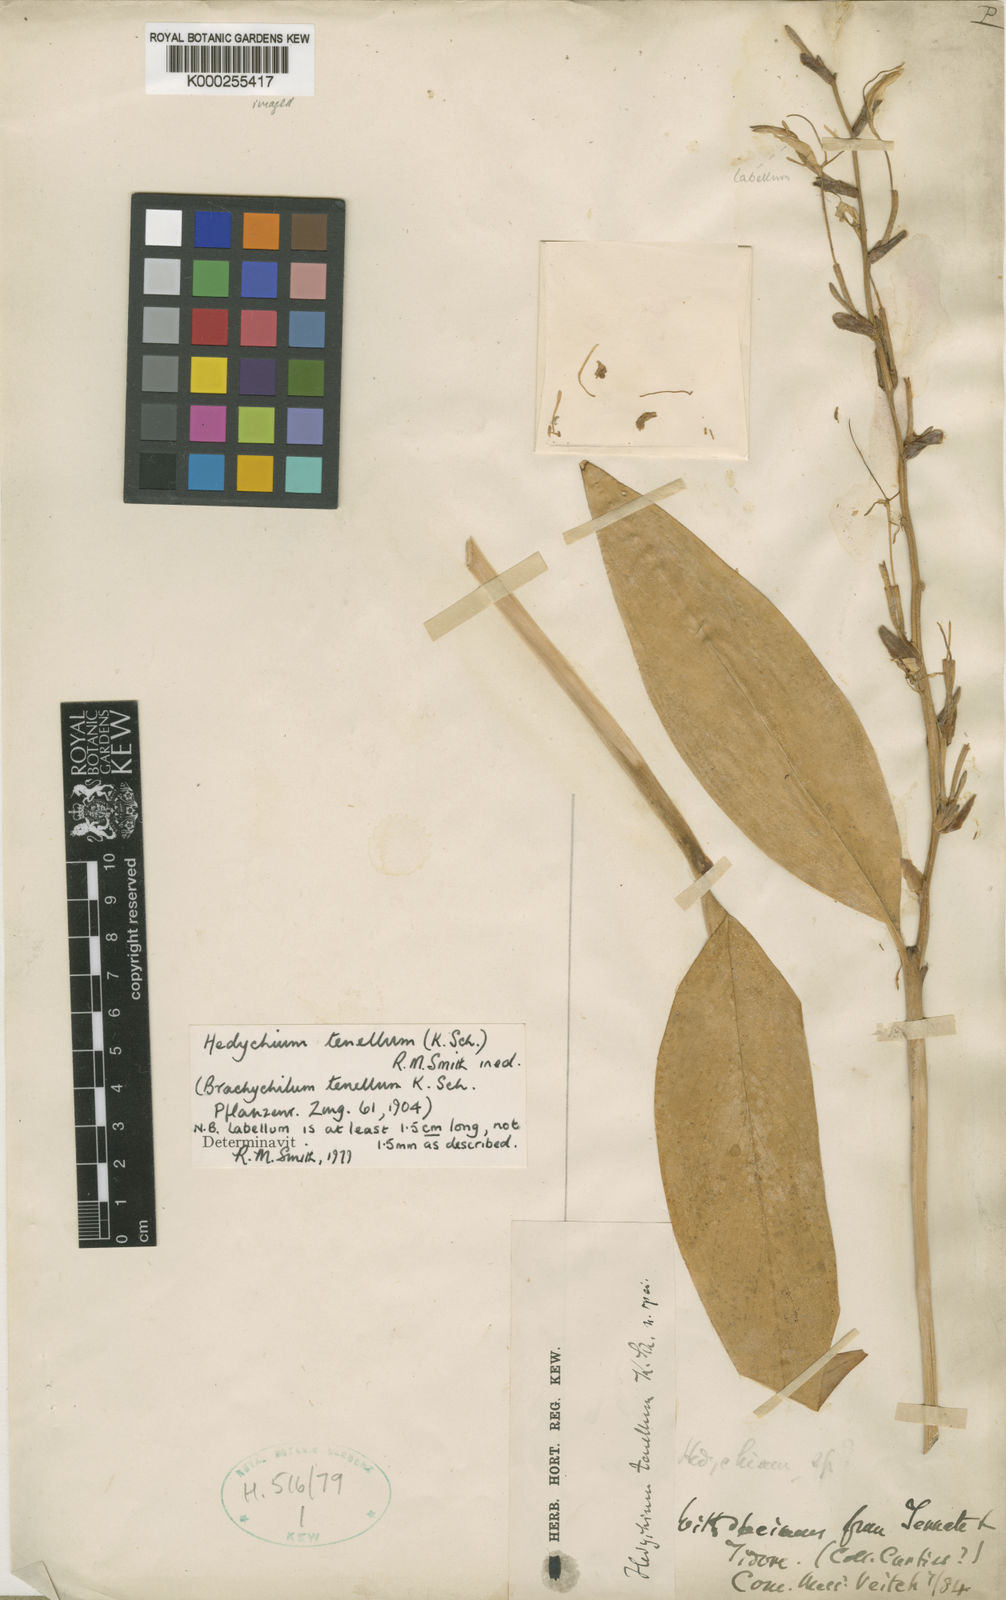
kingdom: Plantae
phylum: Tracheophyta
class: Liliopsida
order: Zingiberales
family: Zingiberaceae
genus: Hedychium
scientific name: Hedychium tenellum
